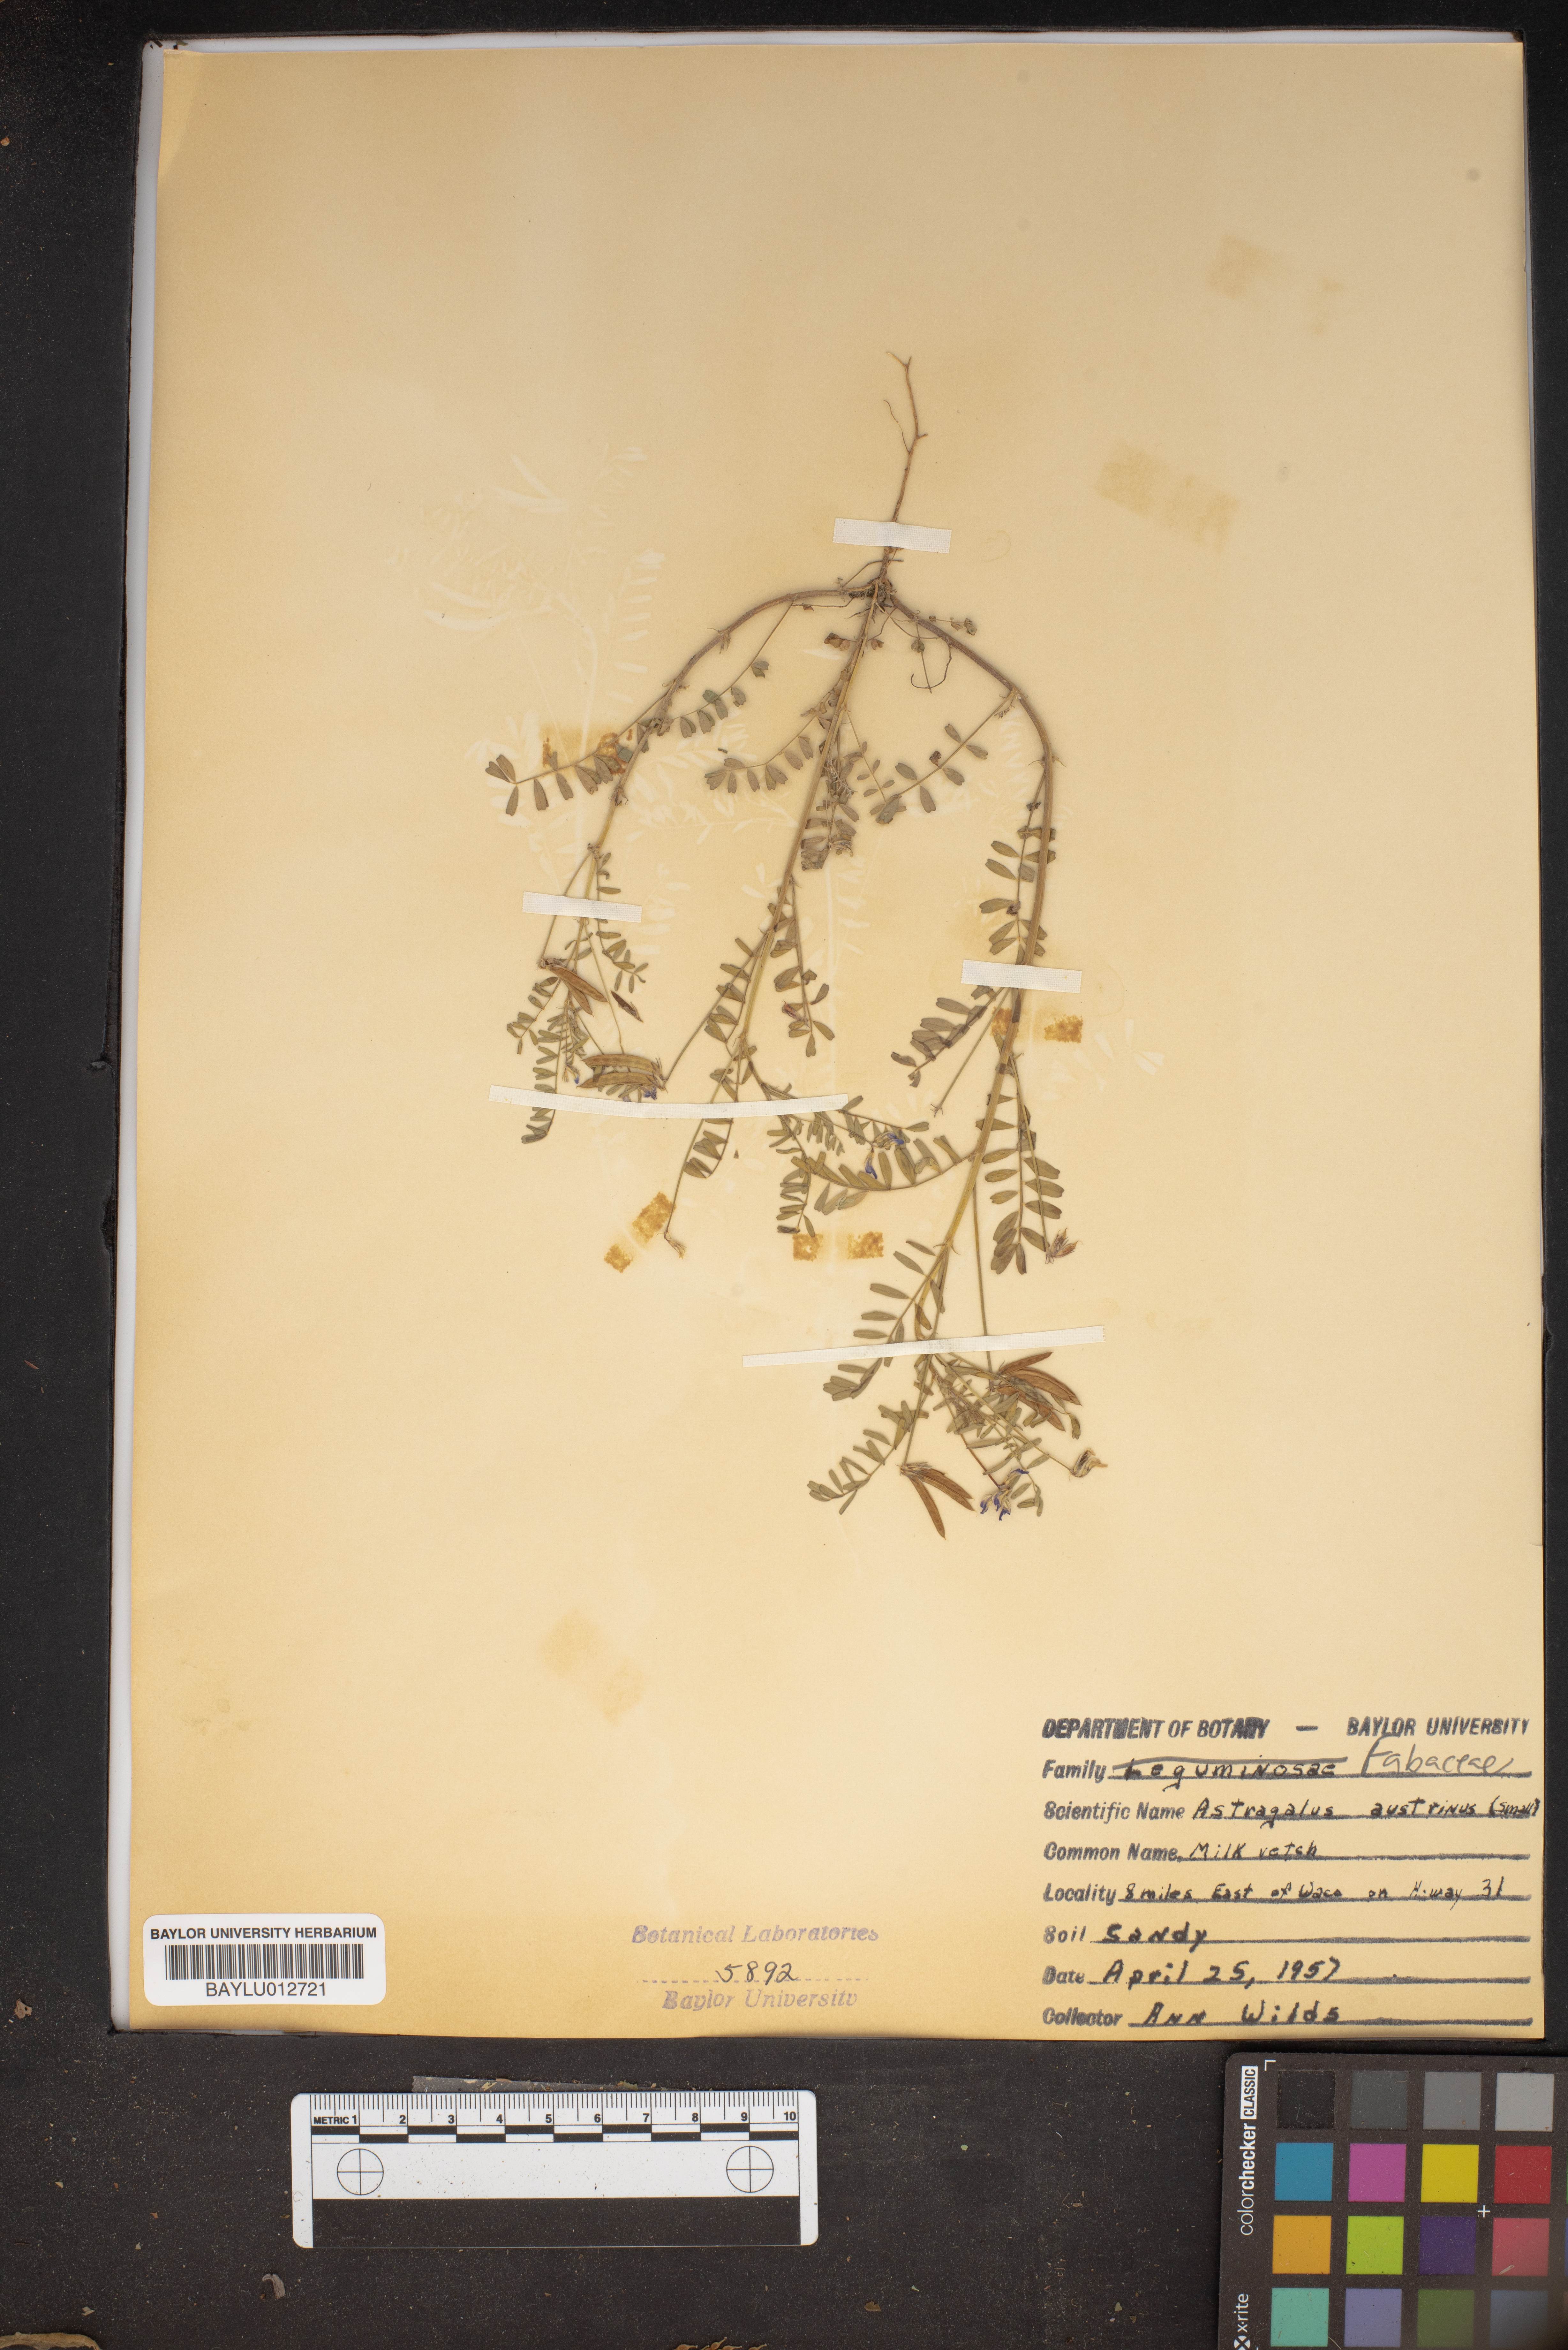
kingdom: Plantae
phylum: Tracheophyta
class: Magnoliopsida
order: Fabales
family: Fabaceae
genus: Astragalus
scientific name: Astragalus nuttallianus
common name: Smallflowered milkvetch
